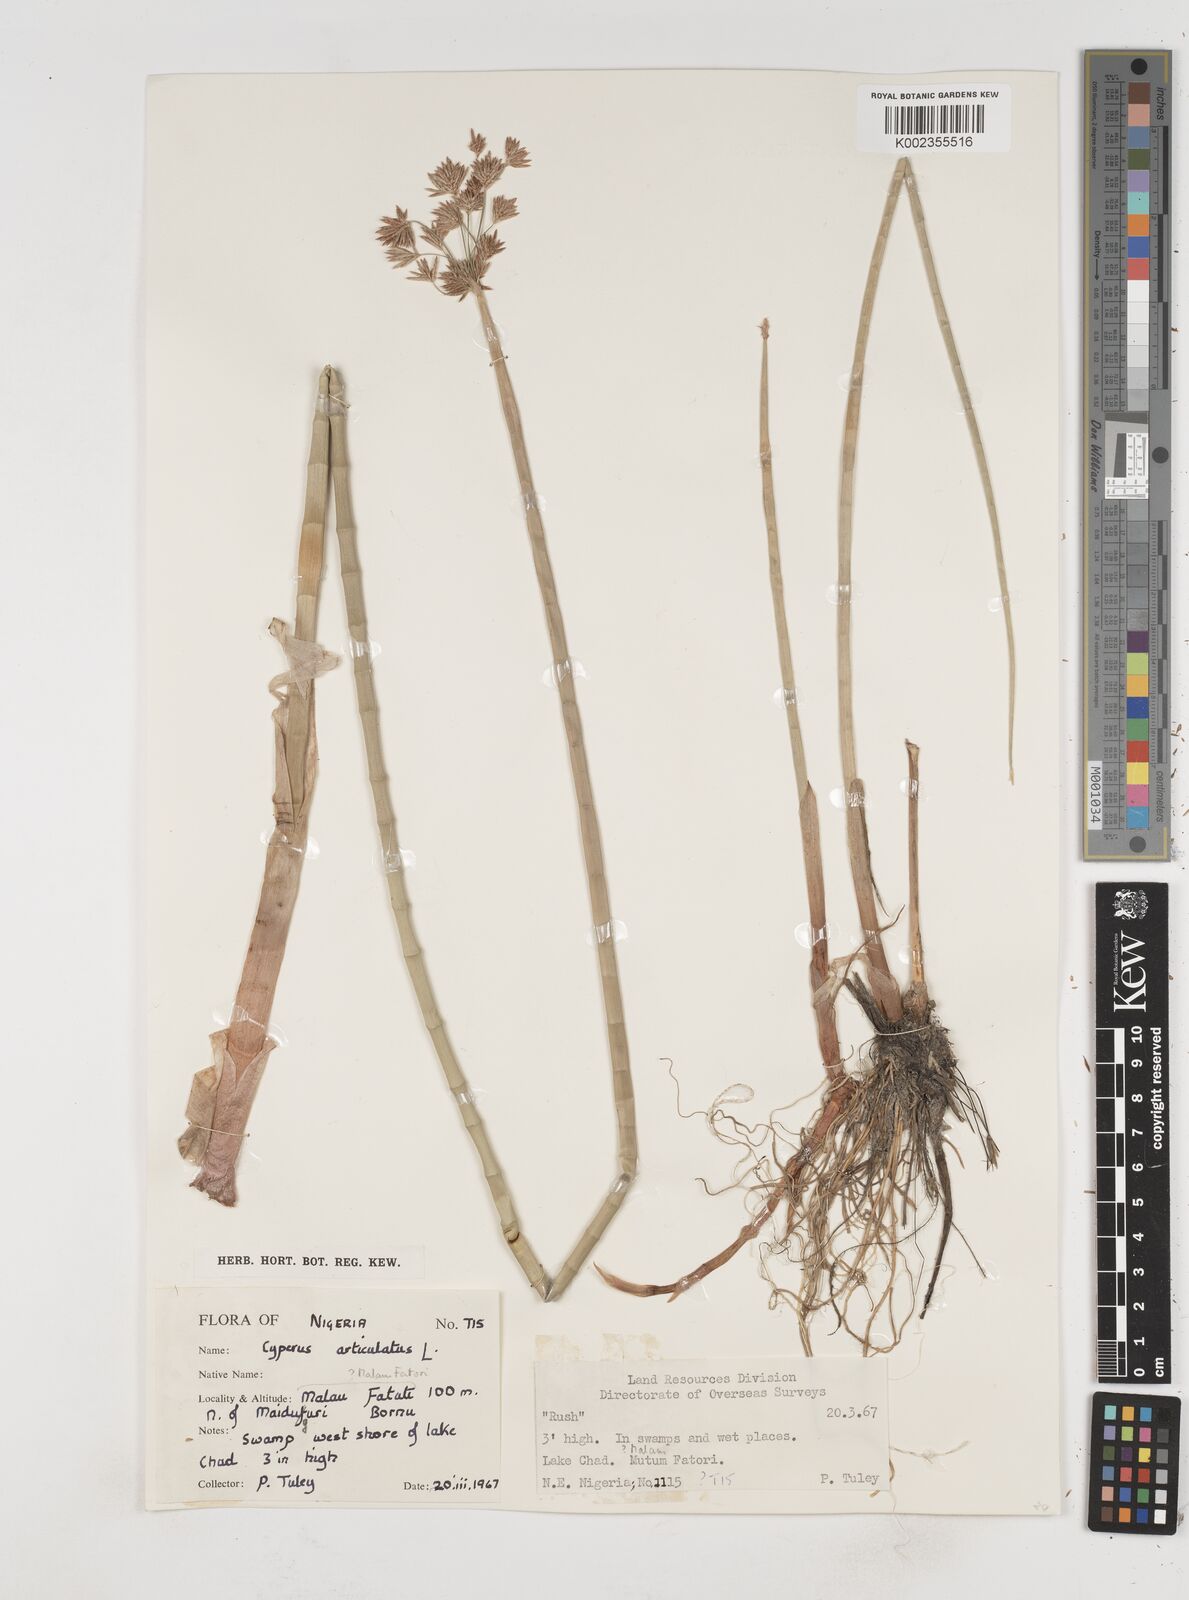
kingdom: Plantae
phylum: Tracheophyta
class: Liliopsida
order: Poales
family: Cyperaceae
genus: Cyperus
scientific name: Cyperus articulatus
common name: Jointed flatsedge
